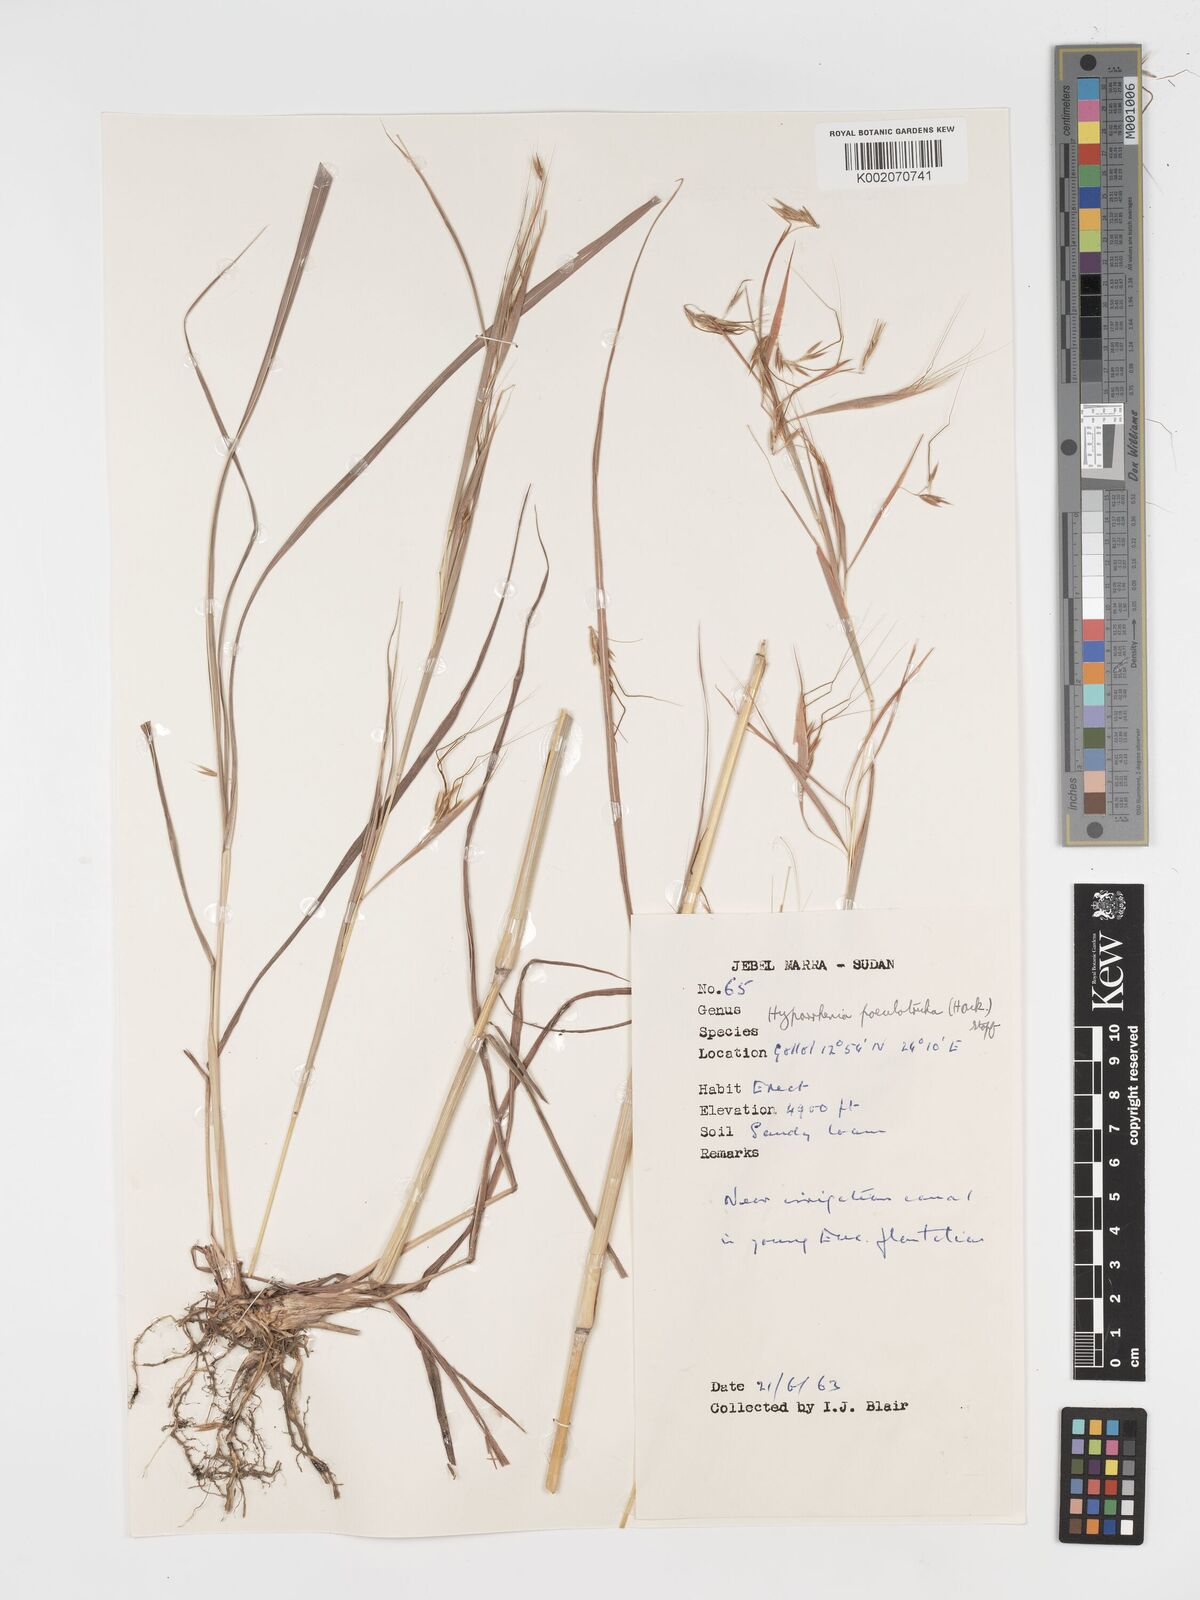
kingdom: Plantae
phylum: Tracheophyta
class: Liliopsida
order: Poales
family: Poaceae
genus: Hyparrhenia
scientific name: Hyparrhenia poecilotricha
